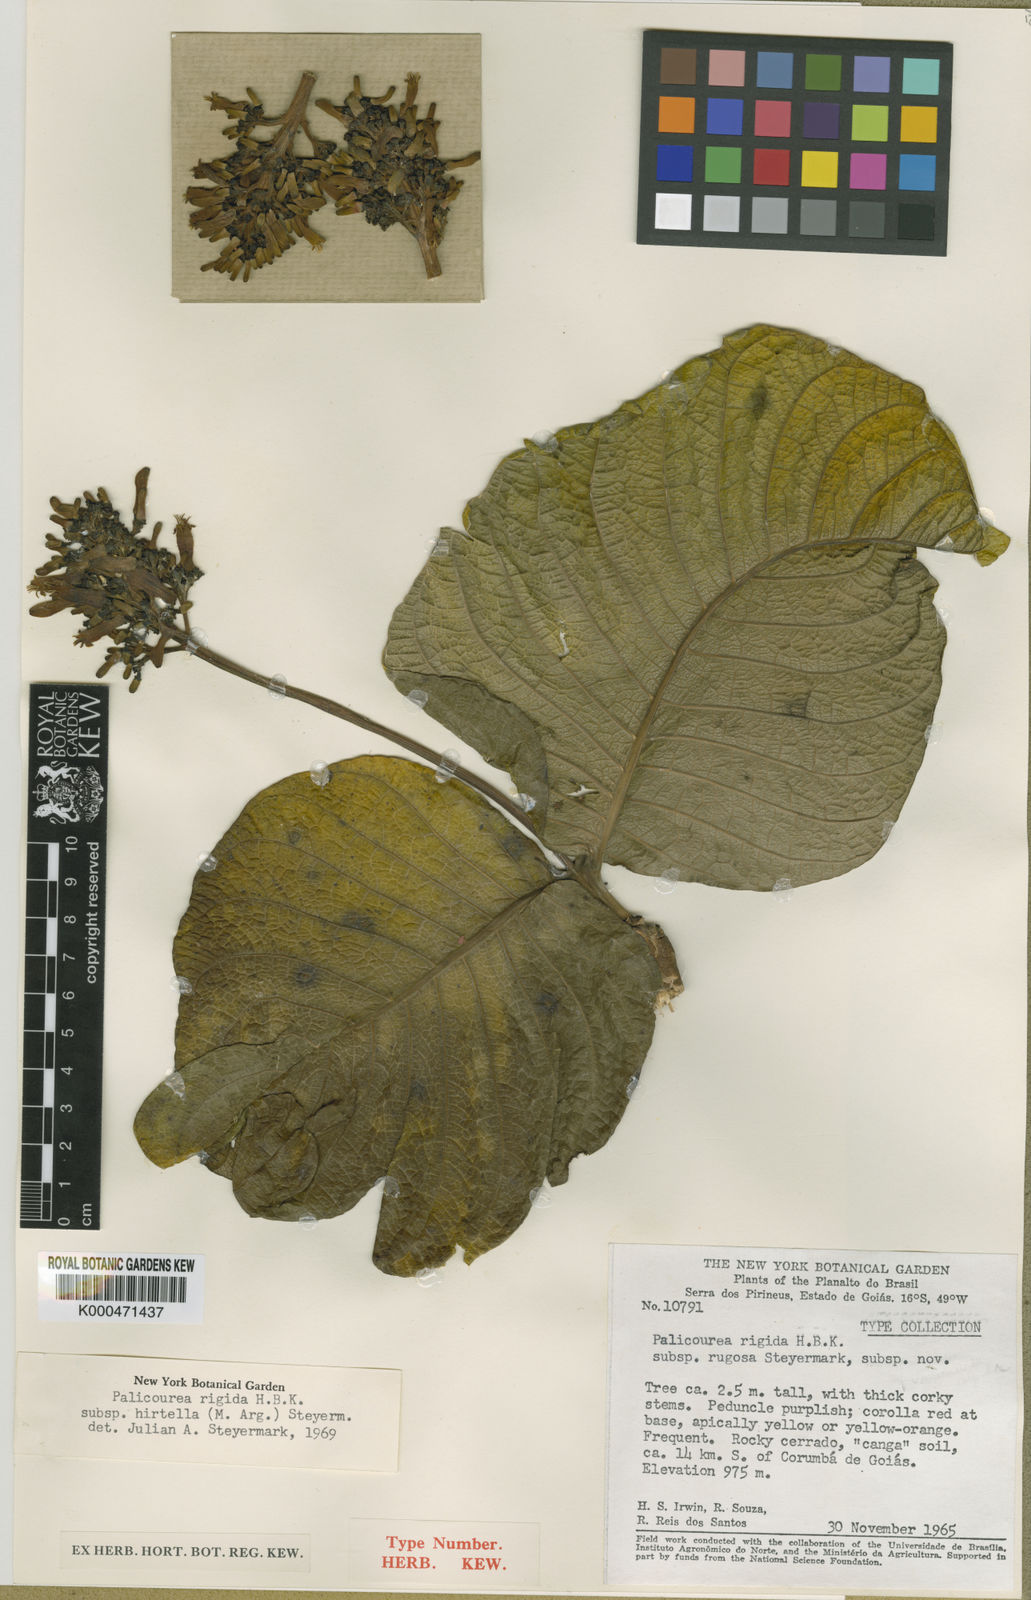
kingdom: Plantae
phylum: Tracheophyta
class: Magnoliopsida
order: Gentianales
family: Rubiaceae
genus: Palicourea
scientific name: Palicourea rigida
